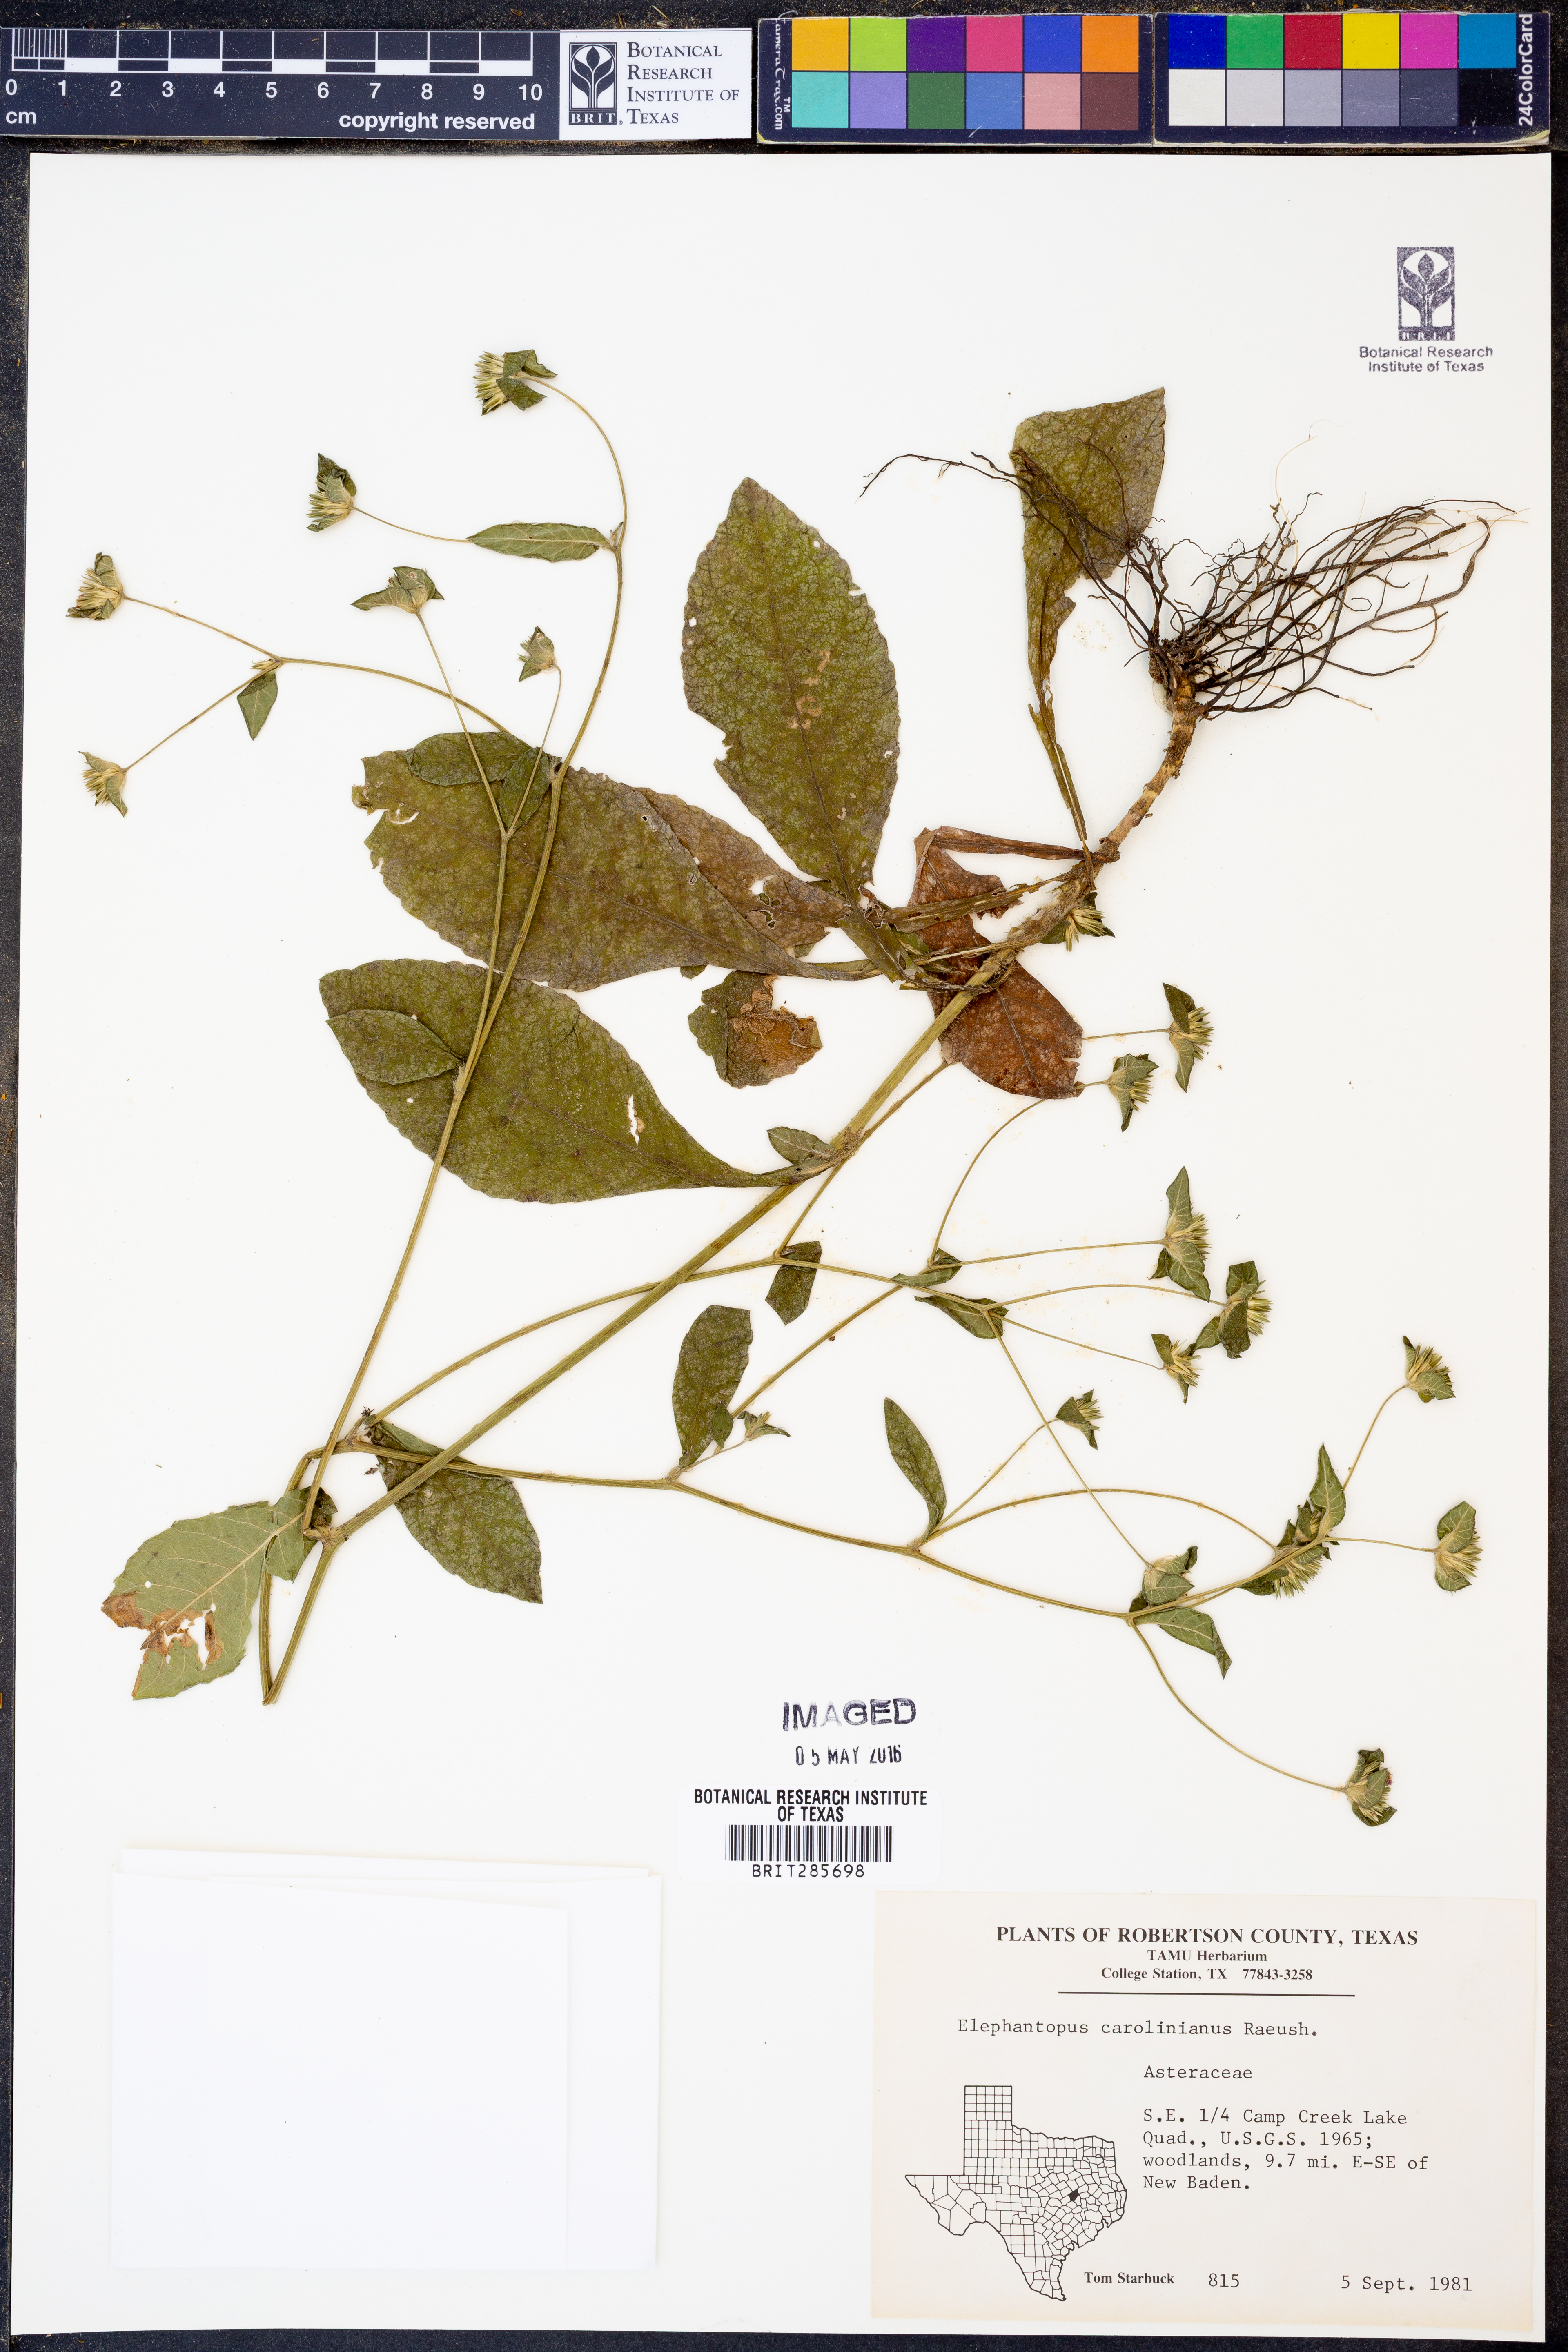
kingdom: Plantae
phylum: Tracheophyta
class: Magnoliopsida
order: Asterales
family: Asteraceae
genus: Elephantopus
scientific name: Elephantopus carolinianus
